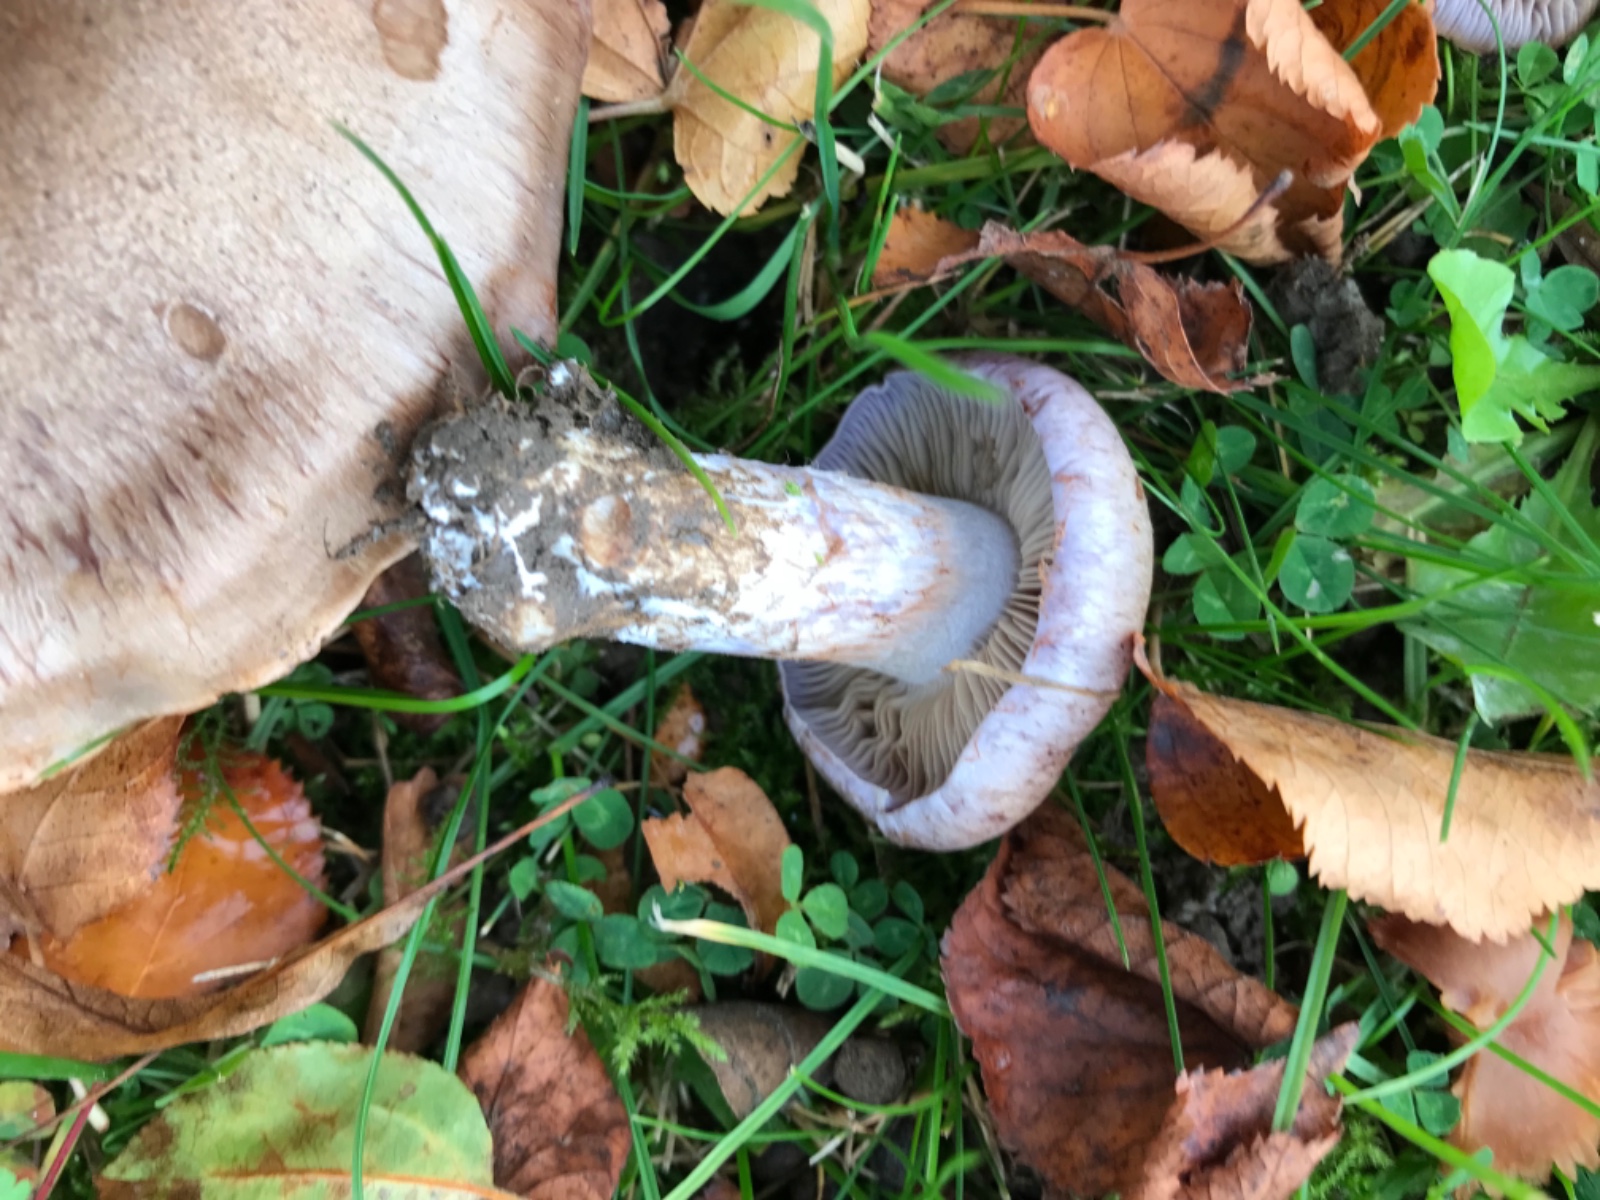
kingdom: Fungi
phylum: Basidiomycota
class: Agaricomycetes
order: Agaricales
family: Cortinariaceae
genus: Phlegmacium
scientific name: Phlegmacium pseudodaulnoyae
